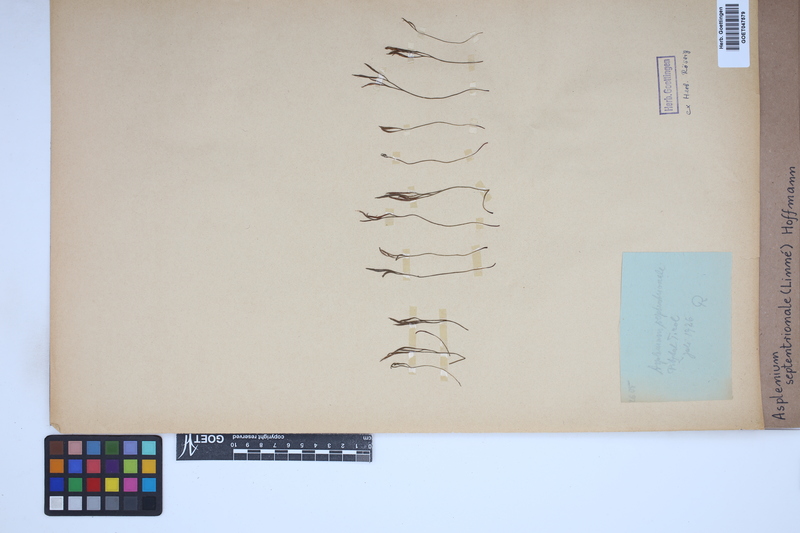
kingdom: Plantae
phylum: Tracheophyta
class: Polypodiopsida
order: Polypodiales
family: Aspleniaceae
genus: Asplenium
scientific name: Asplenium septentrionale
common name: Forked spleenwort
